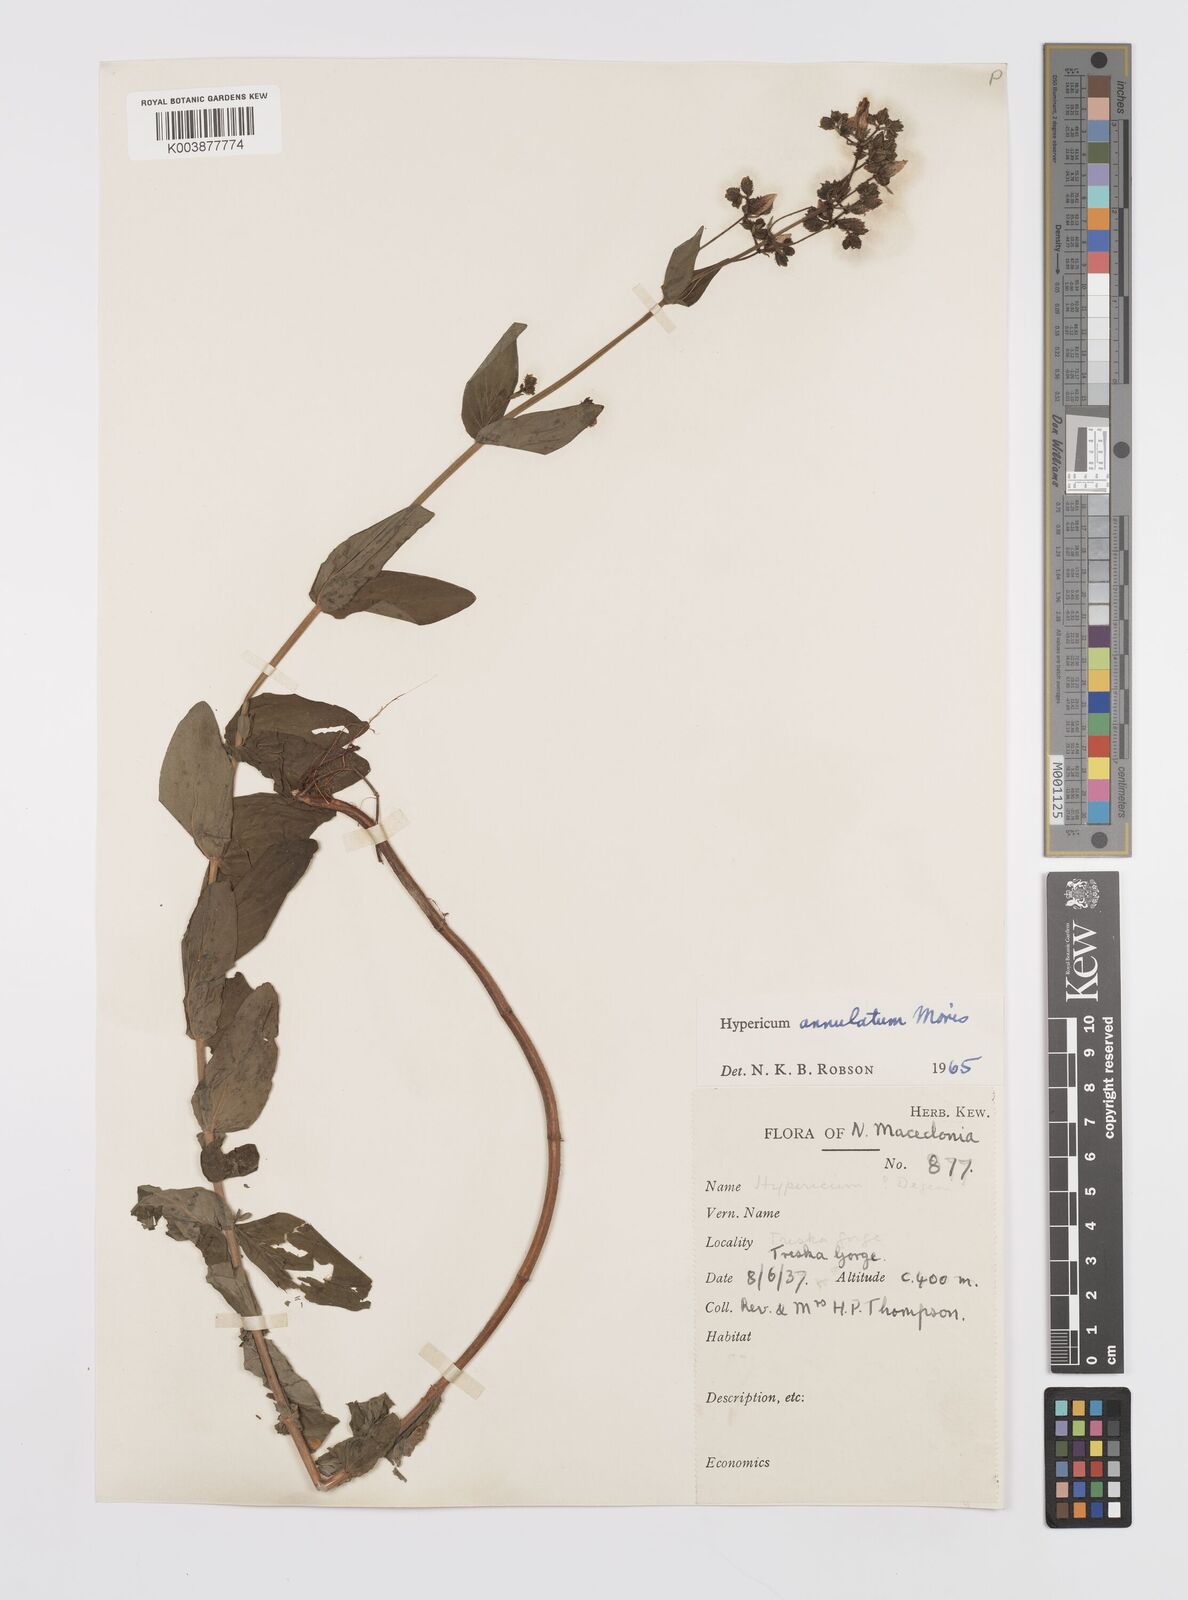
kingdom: Plantae
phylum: Tracheophyta
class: Magnoliopsida
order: Malpighiales
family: Hypericaceae
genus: Hypericum
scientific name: Hypericum annulatum
